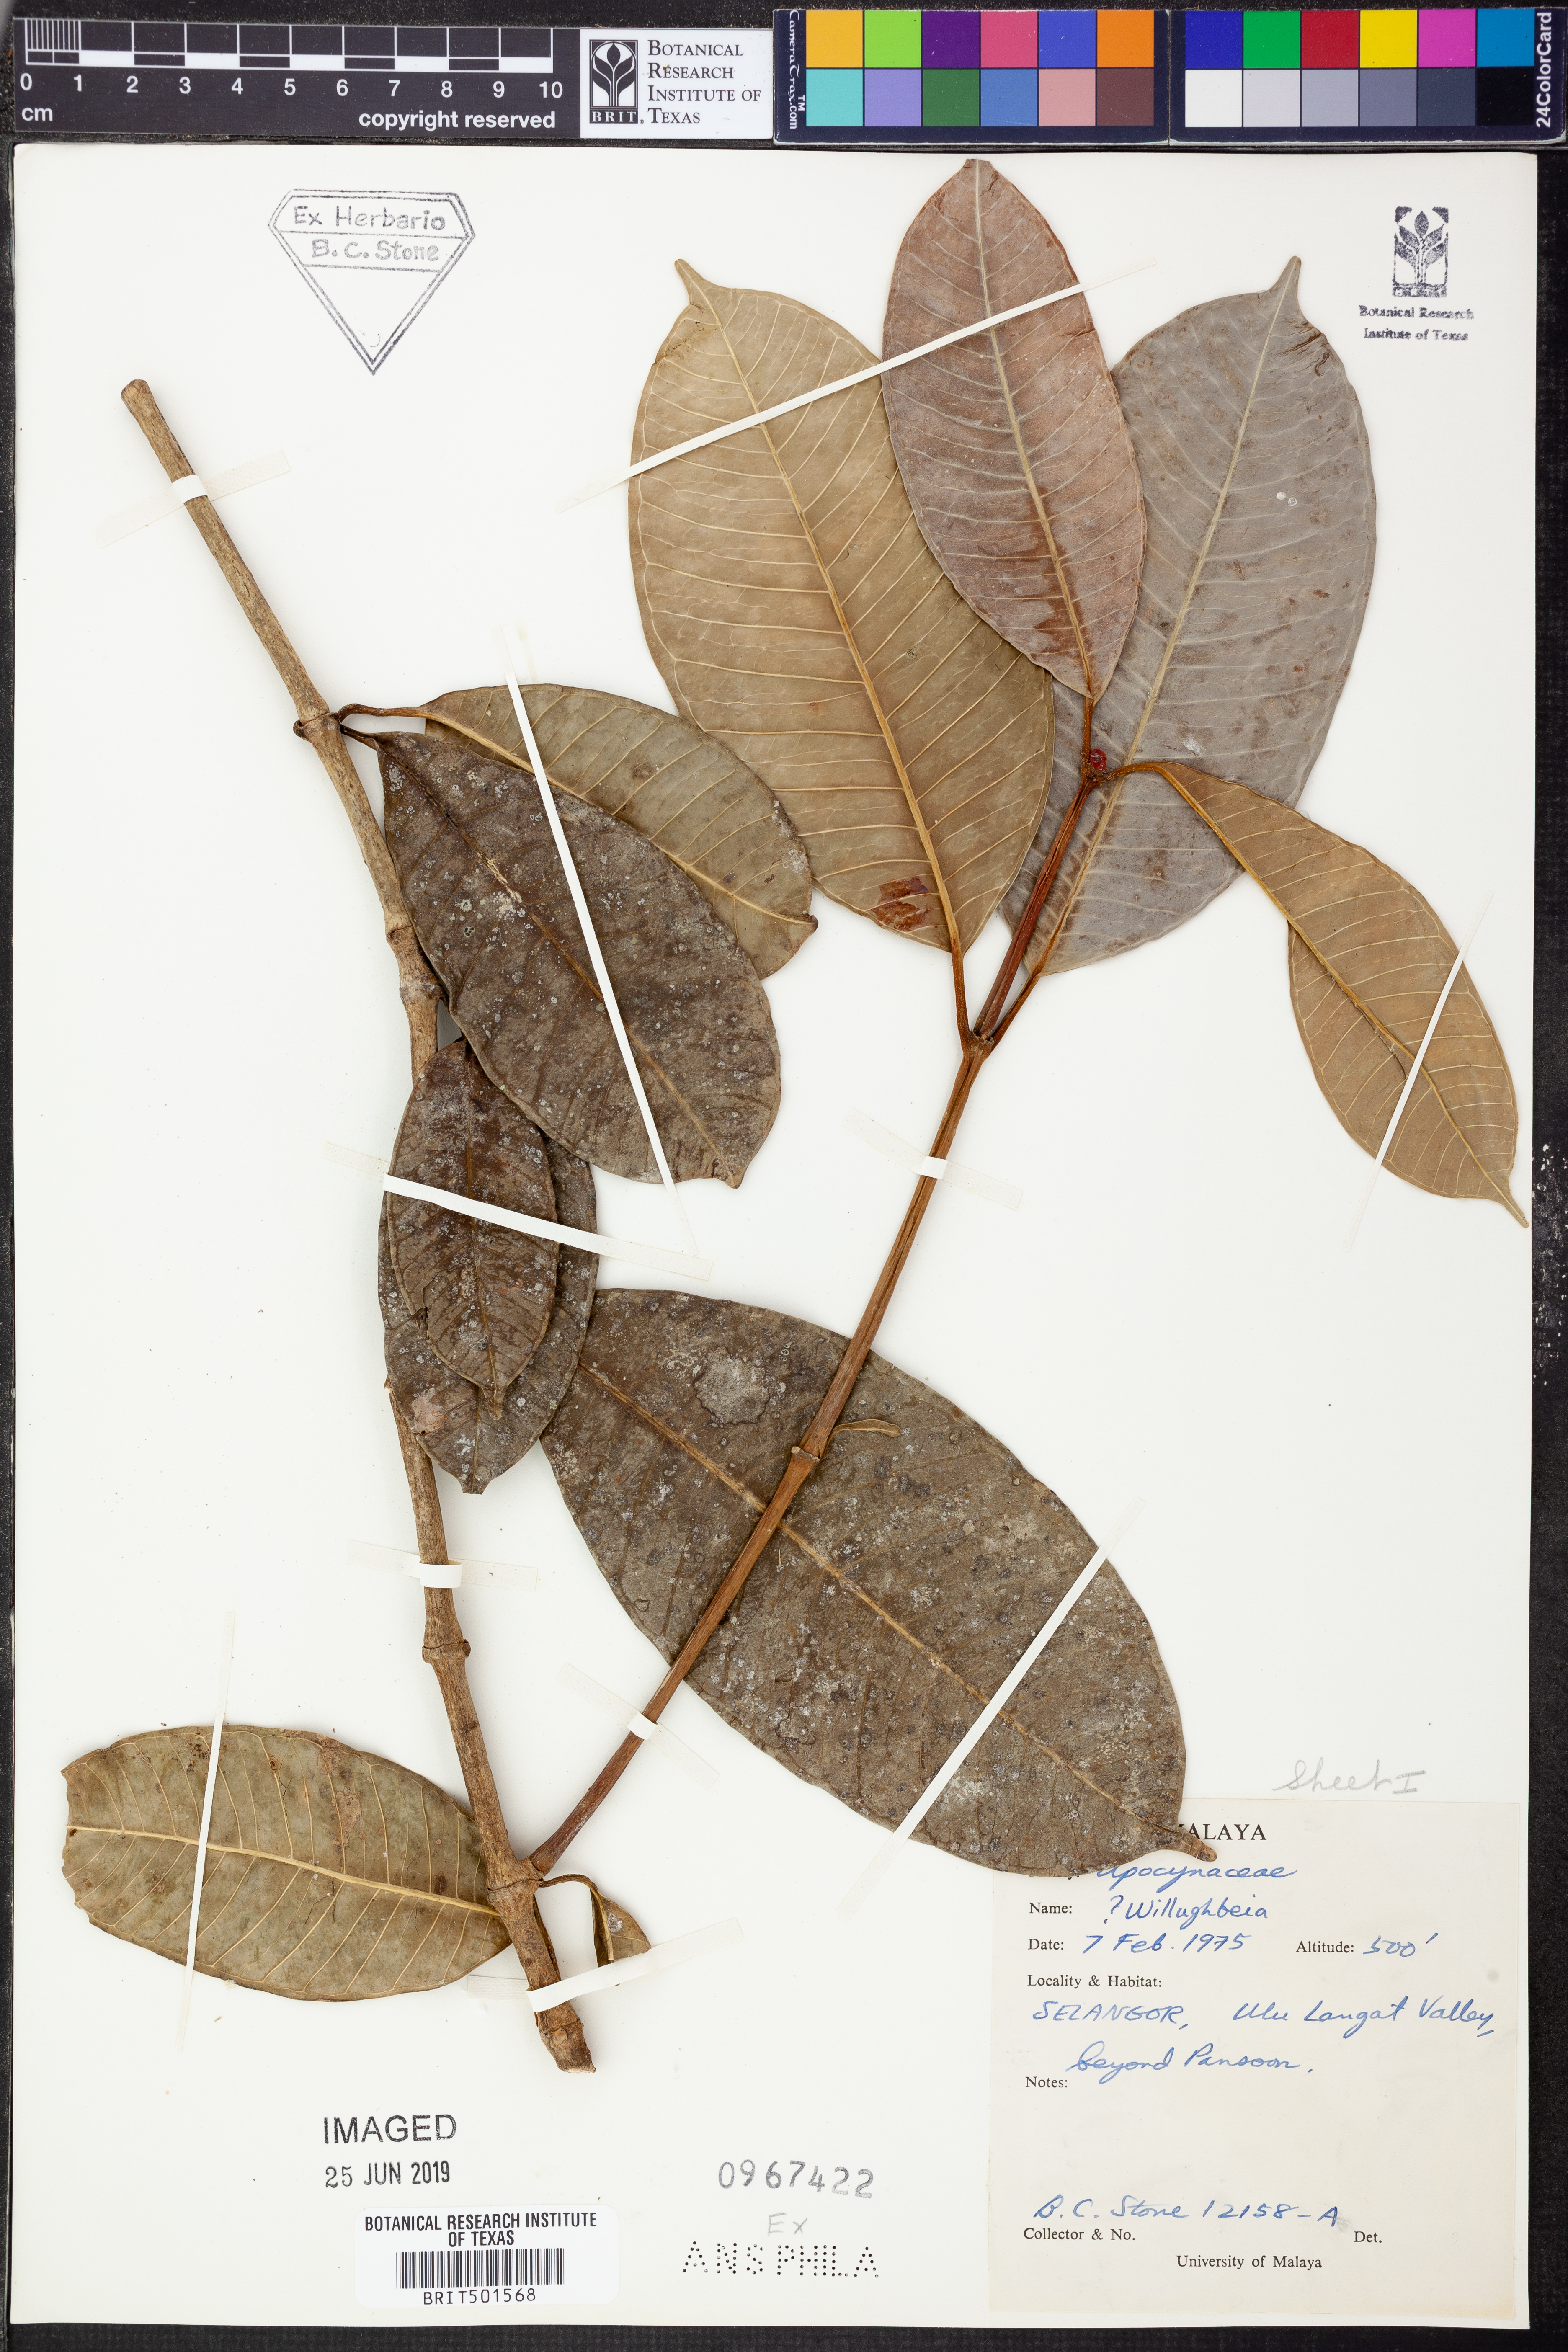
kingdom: Plantae
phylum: Tracheophyta
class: Magnoliopsida
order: Gentianales
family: Apocynaceae
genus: Willughbeia
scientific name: Willughbeia
